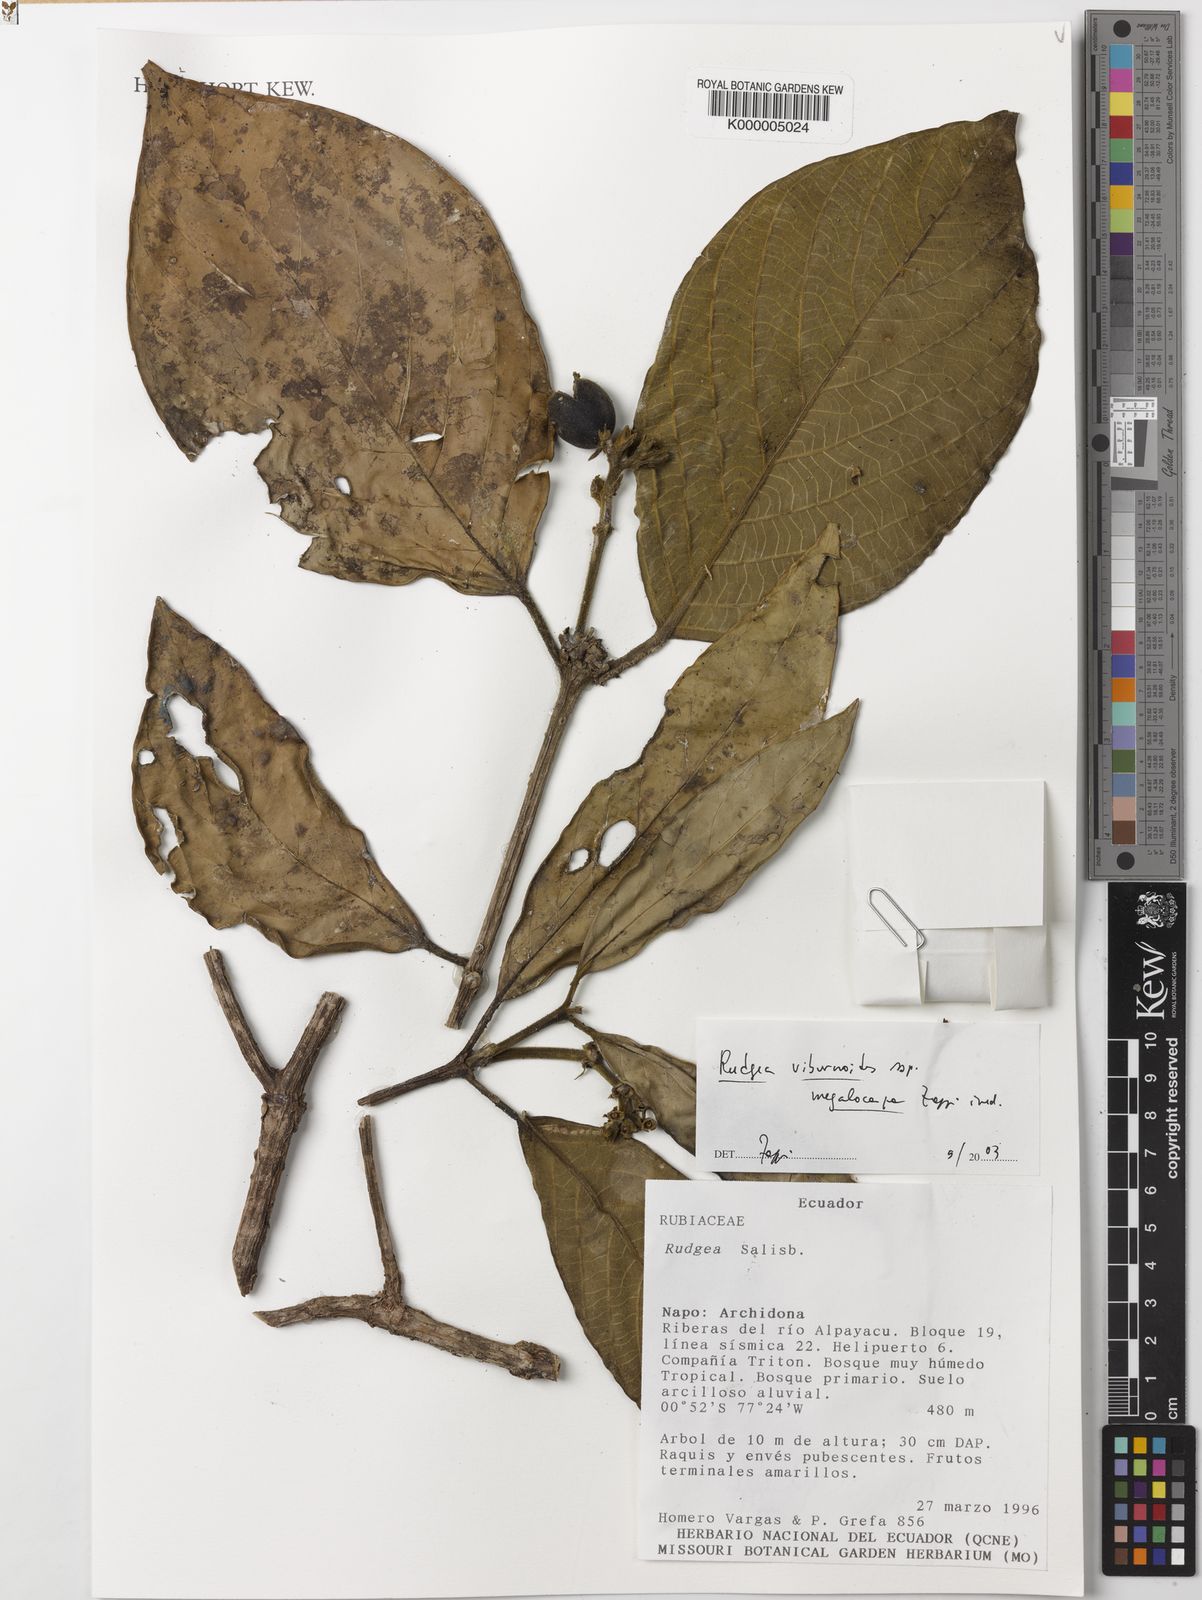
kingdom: Plantae
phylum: Tracheophyta
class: Magnoliopsida
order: Gentianales
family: Rubiaceae
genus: Rudgea
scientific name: Rudgea viburnoides
